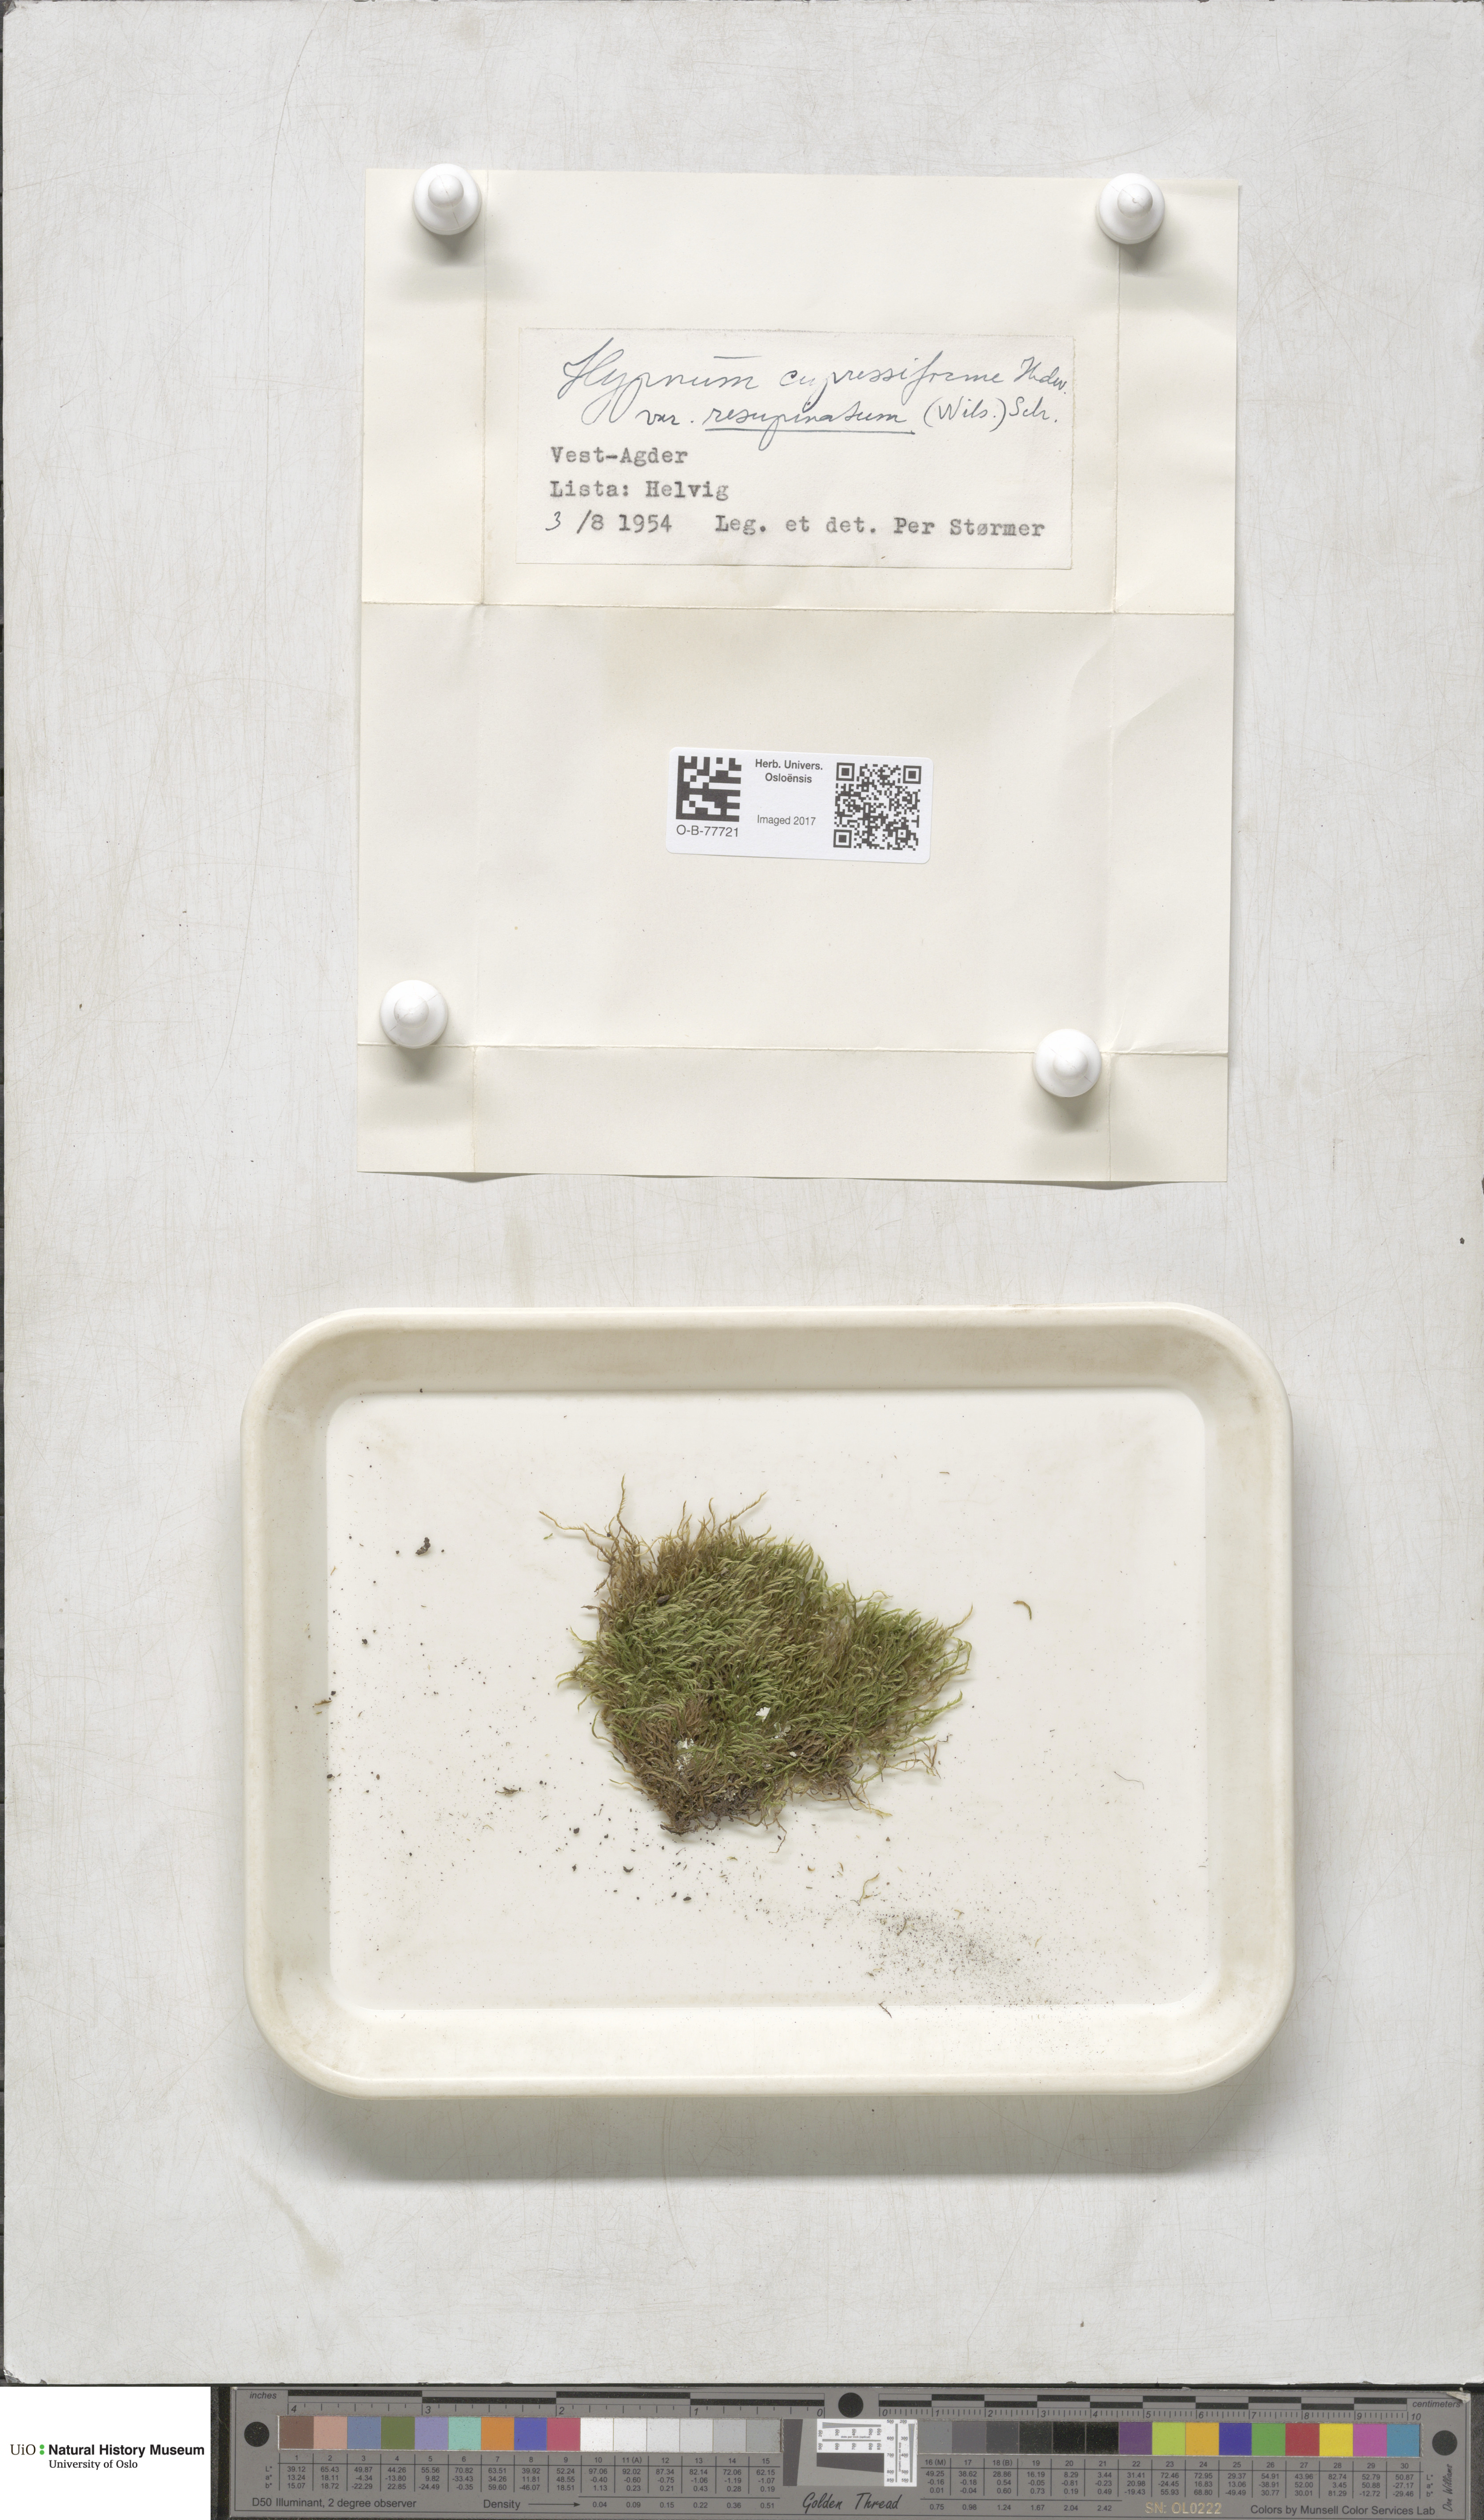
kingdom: Plantae
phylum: Bryophyta
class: Bryopsida
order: Hypnales
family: Hypnaceae
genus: Hypnum
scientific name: Hypnum cupressiforme
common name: Cypress-leaved plait-moss
